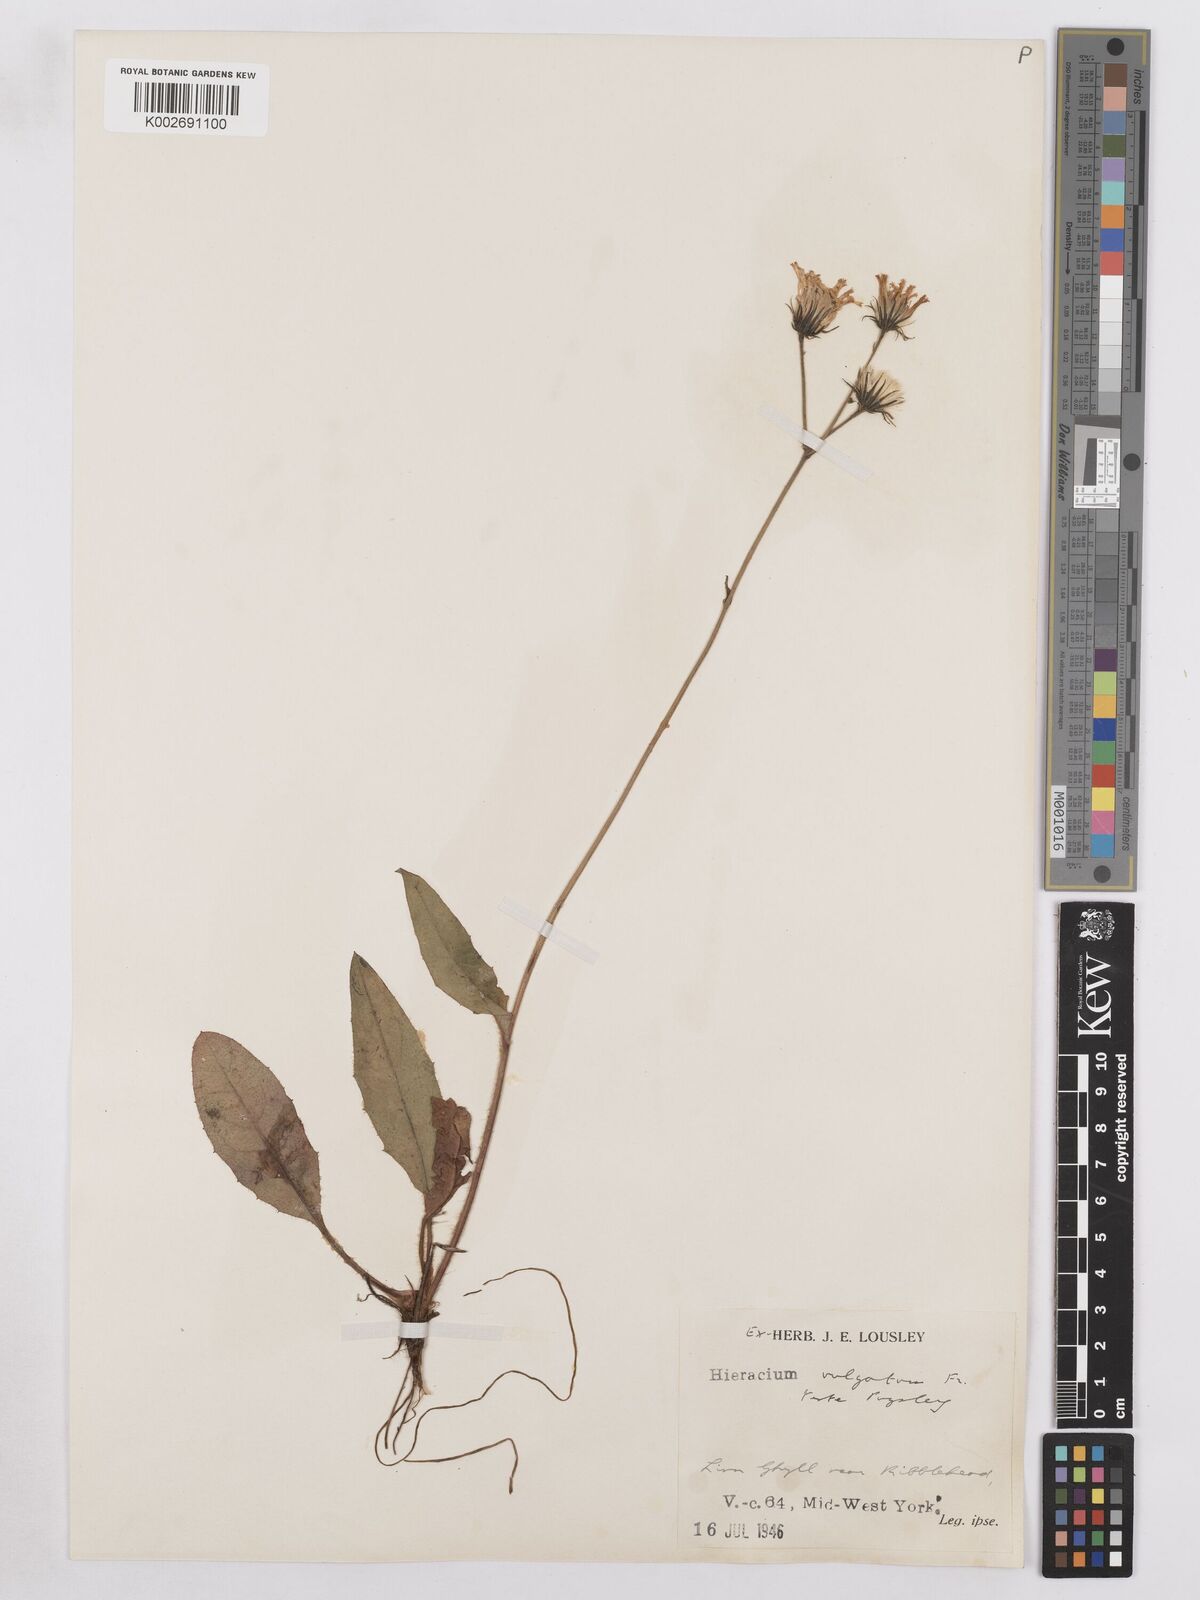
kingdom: Plantae
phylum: Tracheophyta
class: Magnoliopsida
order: Asterales
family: Asteraceae
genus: Hieracium
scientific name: Hieracium lachenalii
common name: Common hawkweed
